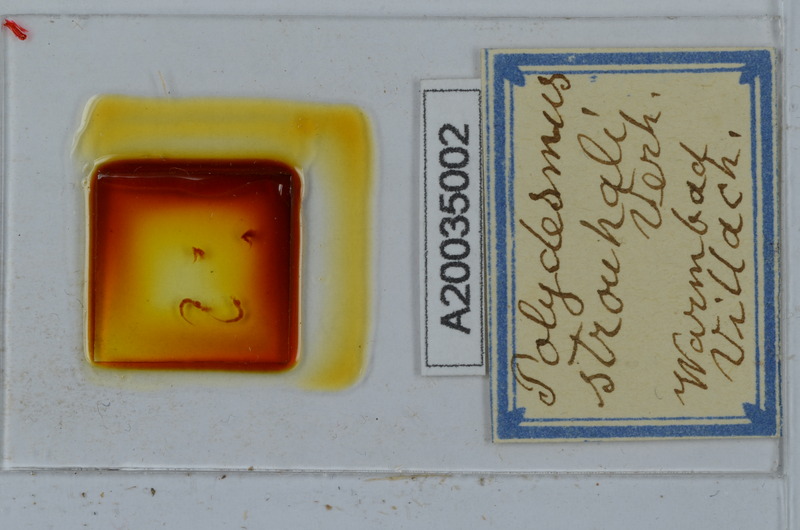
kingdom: Animalia
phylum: Arthropoda
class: Diplopoda
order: Polydesmida
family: Polydesmidae
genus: Polydesmus
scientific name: Polydesmus rangifer
